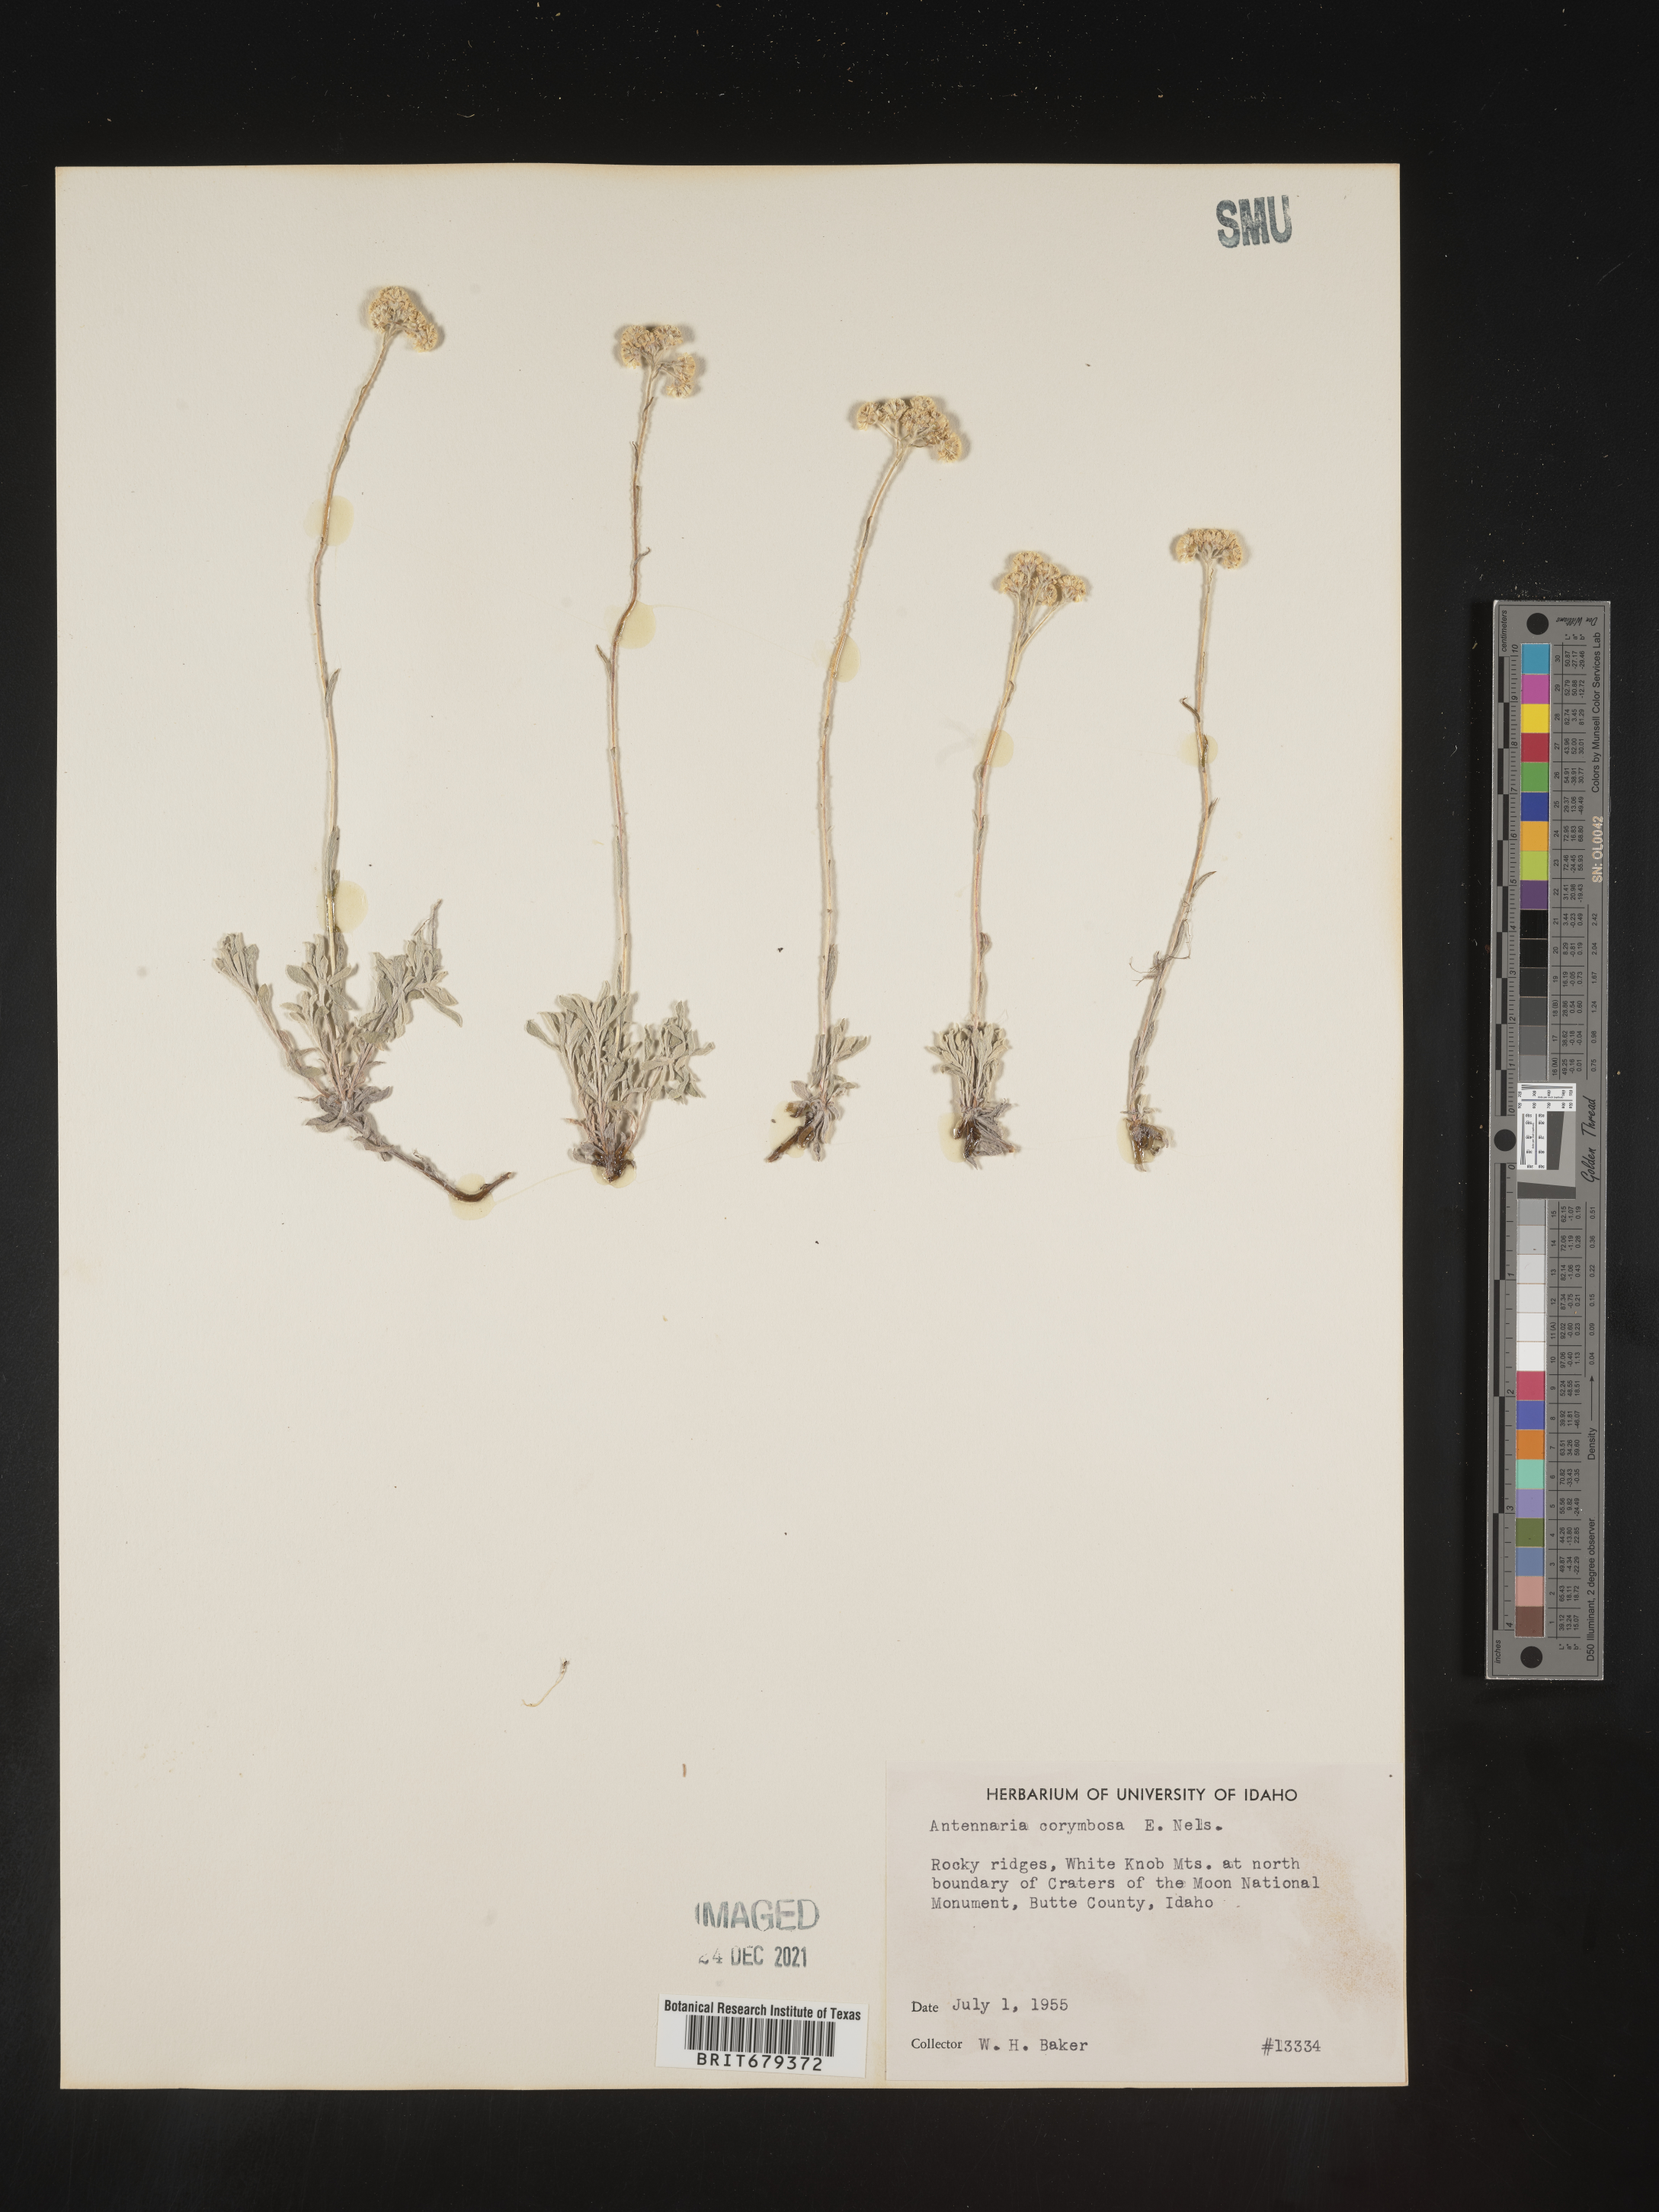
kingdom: Plantae
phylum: Tracheophyta
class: Magnoliopsida
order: Asterales
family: Asteraceae
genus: Antennaria
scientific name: Antennaria corymbosa
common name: Meadow pussytoes
